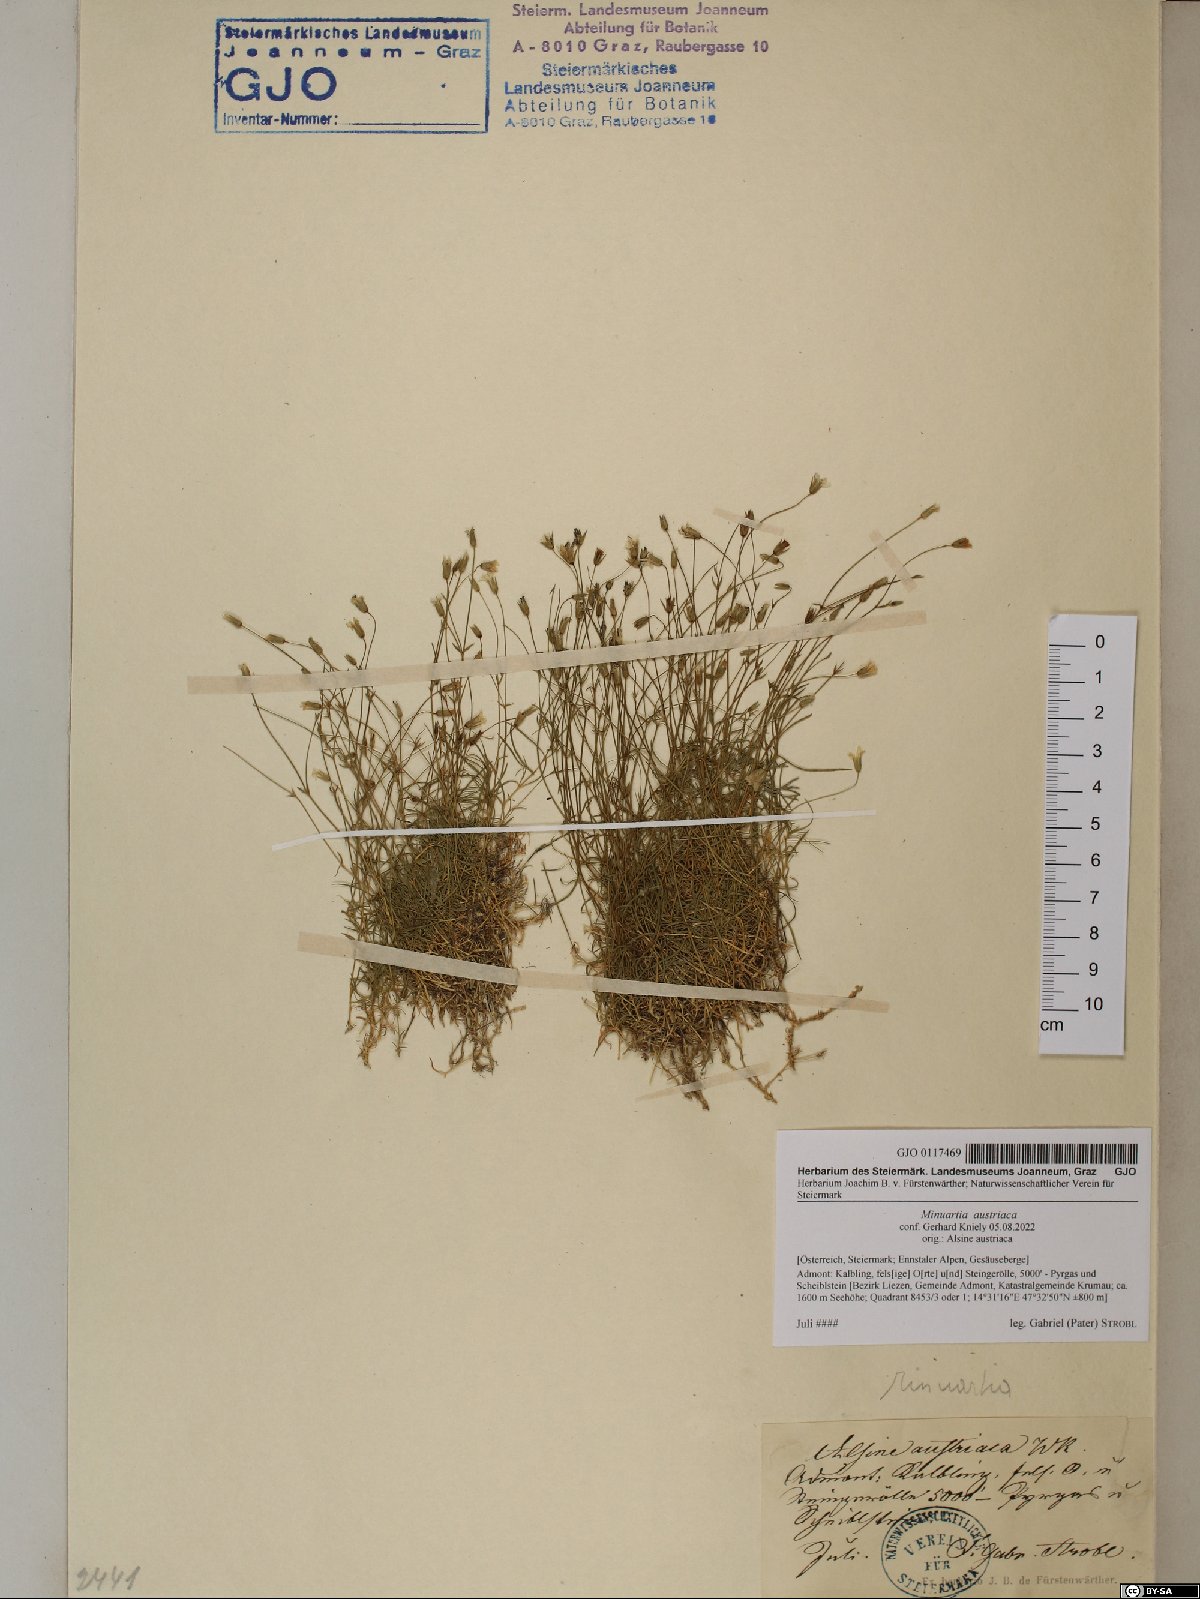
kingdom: Plantae
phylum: Tracheophyta
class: Magnoliopsida
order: Caryophyllales
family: Caryophyllaceae
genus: Sabulina
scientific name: Sabulina austriaca
